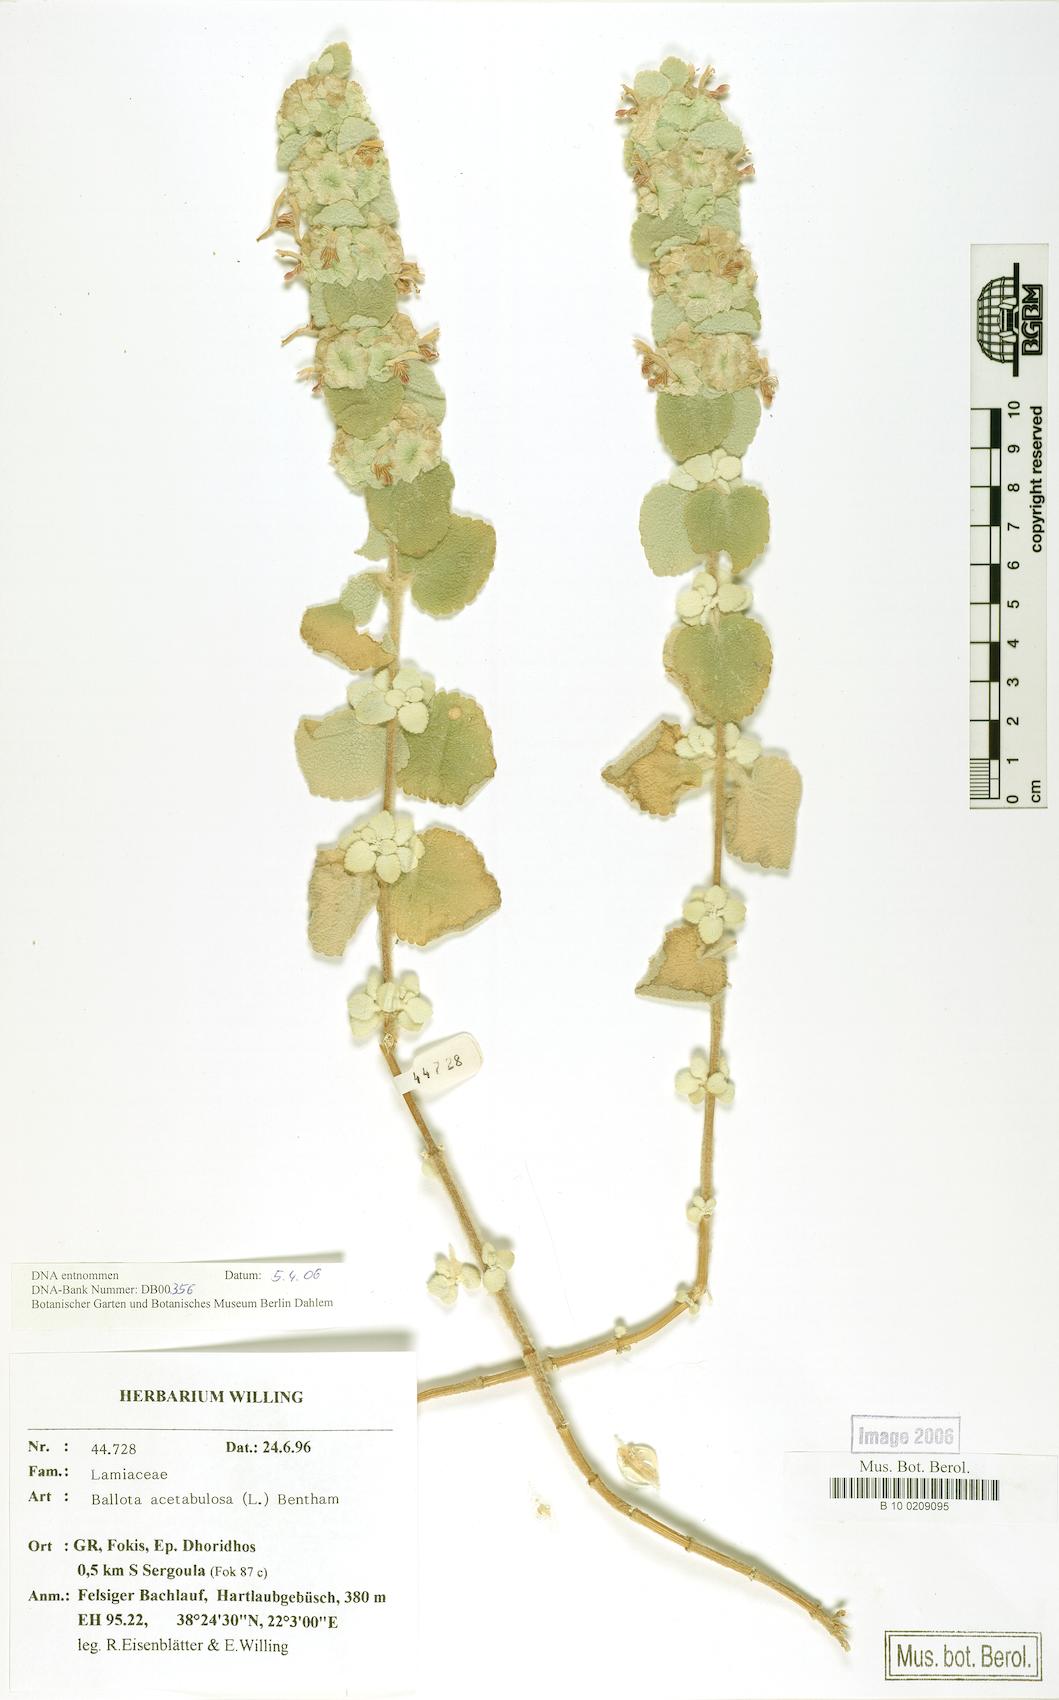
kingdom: Plantae
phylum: Tracheophyta
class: Magnoliopsida
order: Lamiales
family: Lamiaceae
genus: Pseudodictamnus
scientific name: Pseudodictamnus acetabulosus
